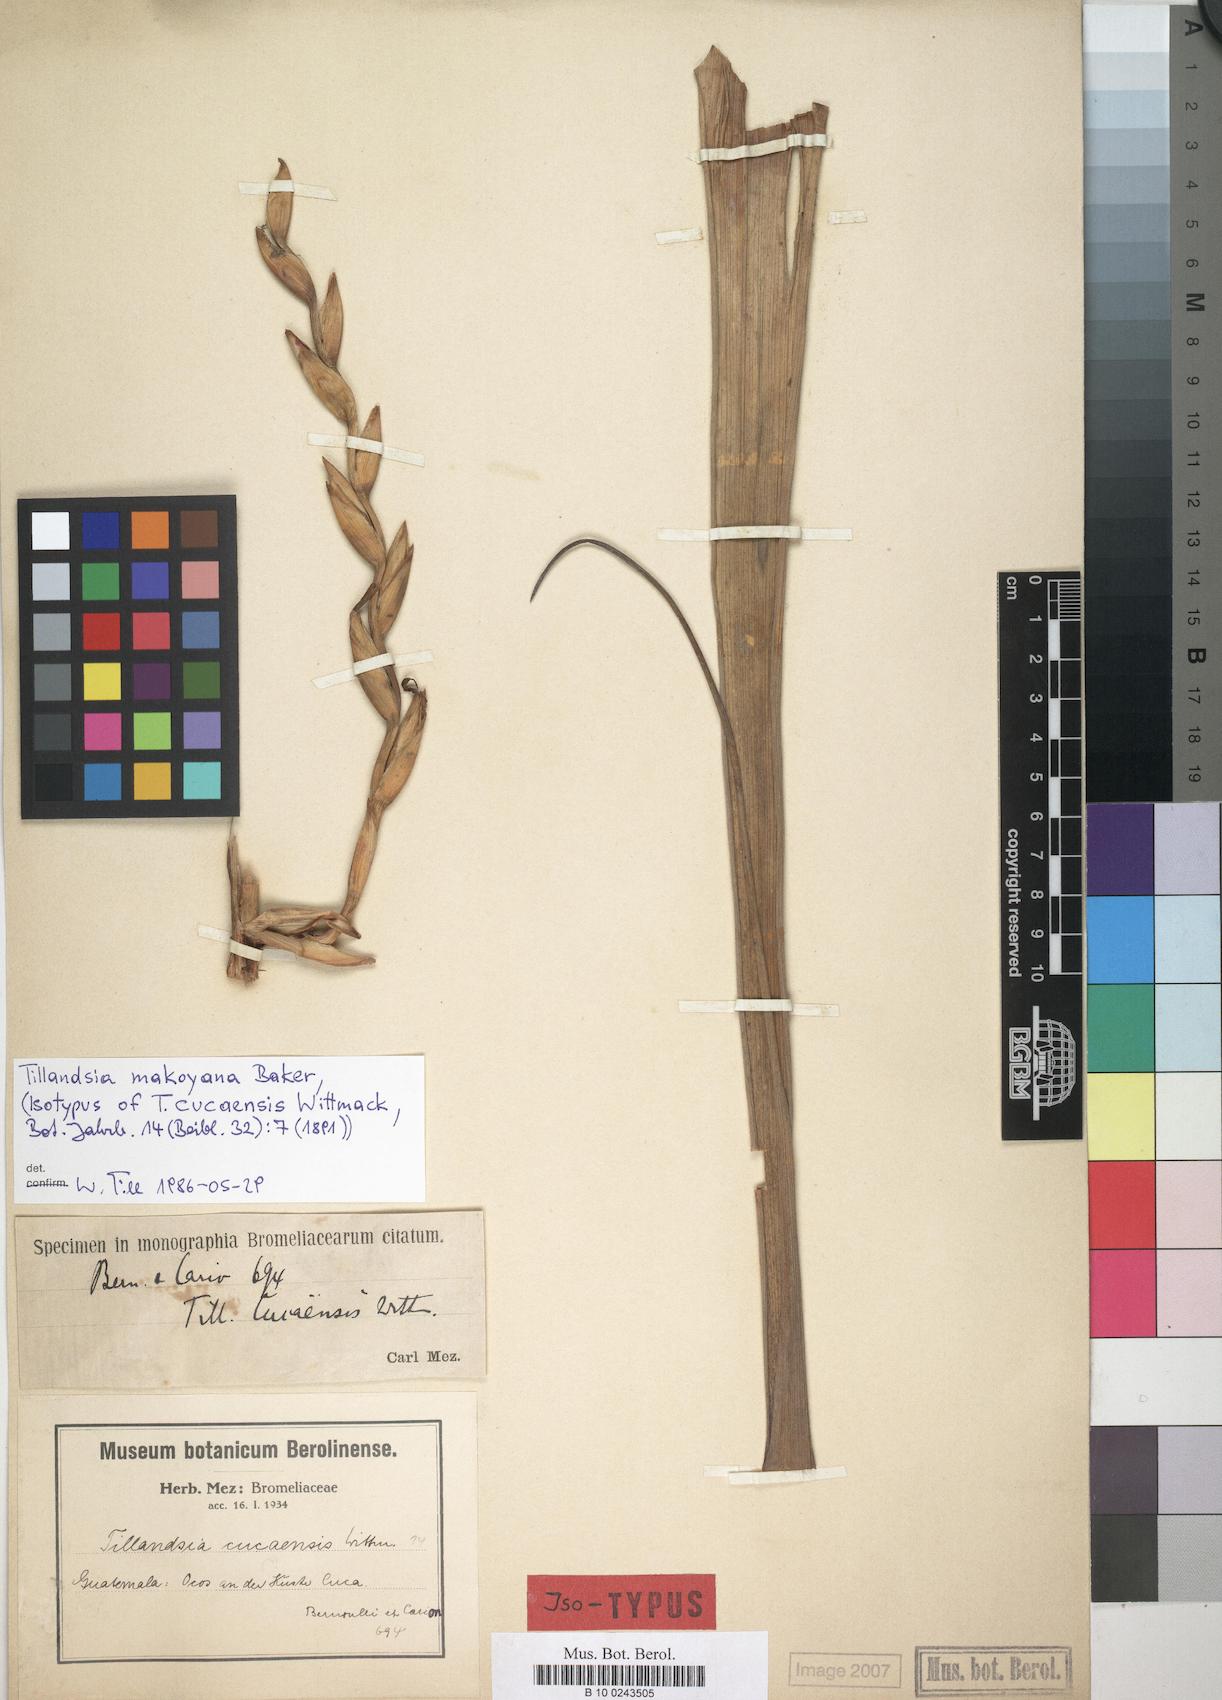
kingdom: Plantae
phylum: Tracheophyta
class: Liliopsida
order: Poales
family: Bromeliaceae
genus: Tillandsia
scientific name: Tillandsia makoyana
